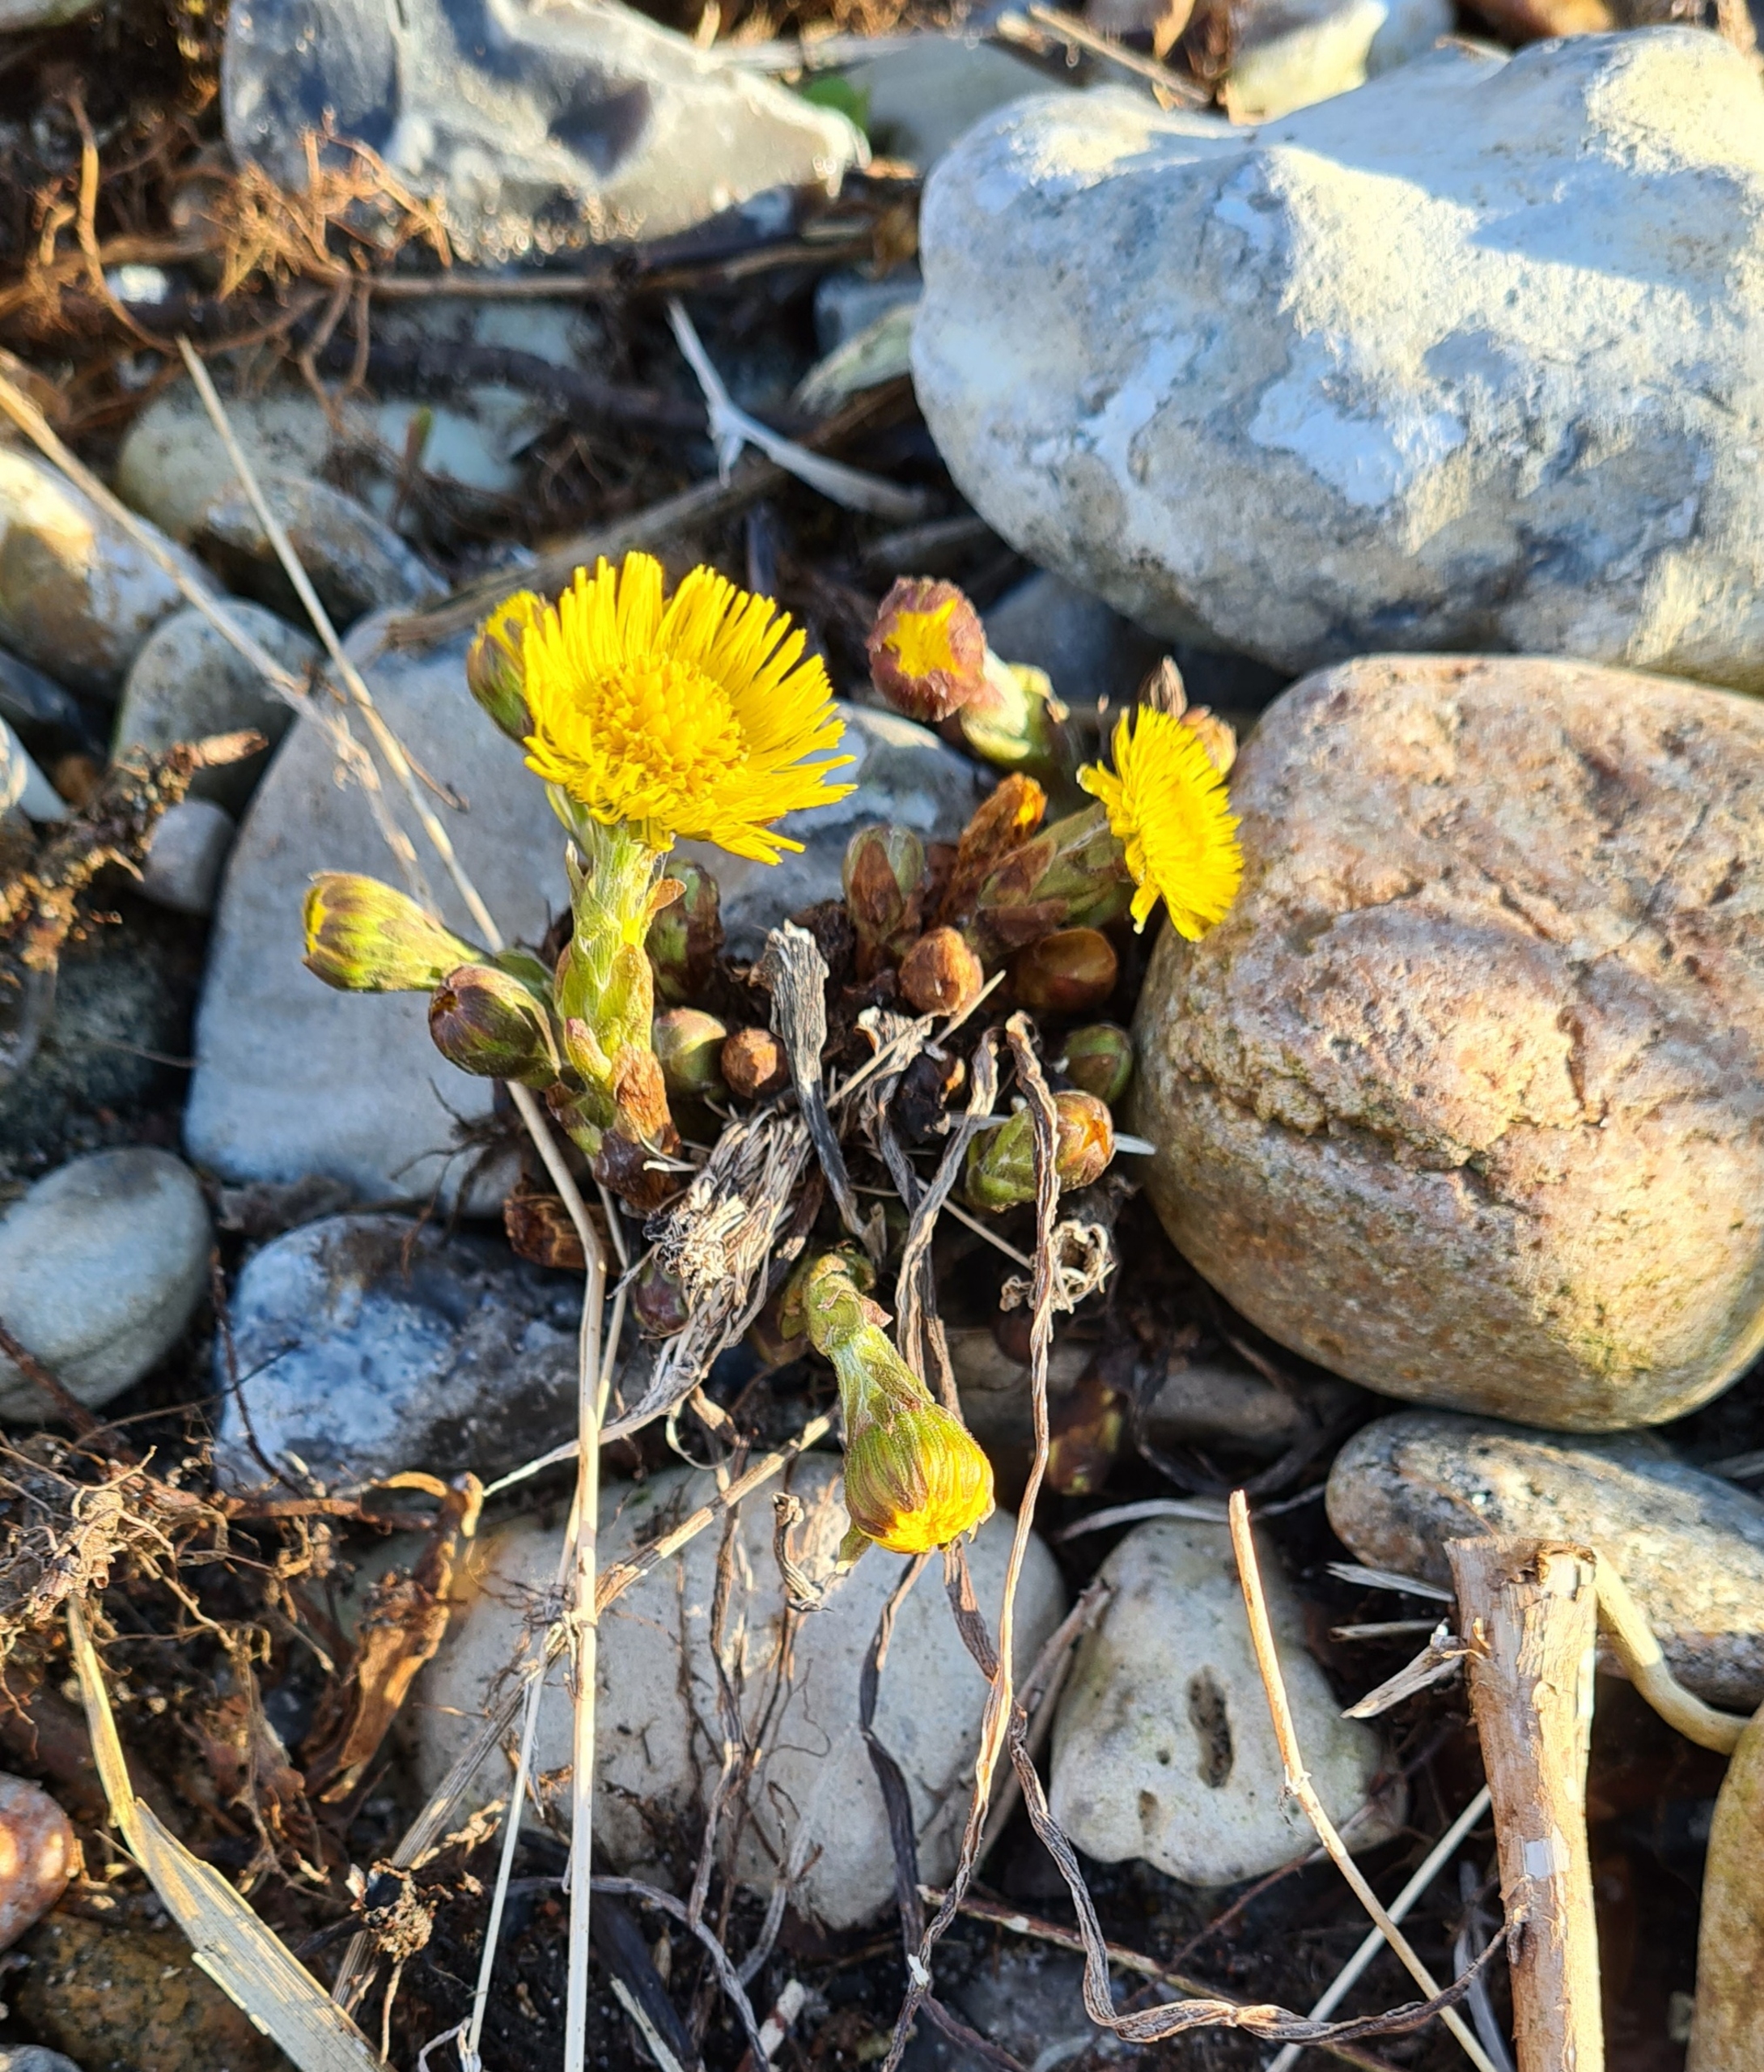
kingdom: Plantae
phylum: Tracheophyta
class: Magnoliopsida
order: Asterales
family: Asteraceae
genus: Tussilago
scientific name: Tussilago farfara
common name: Følfod
